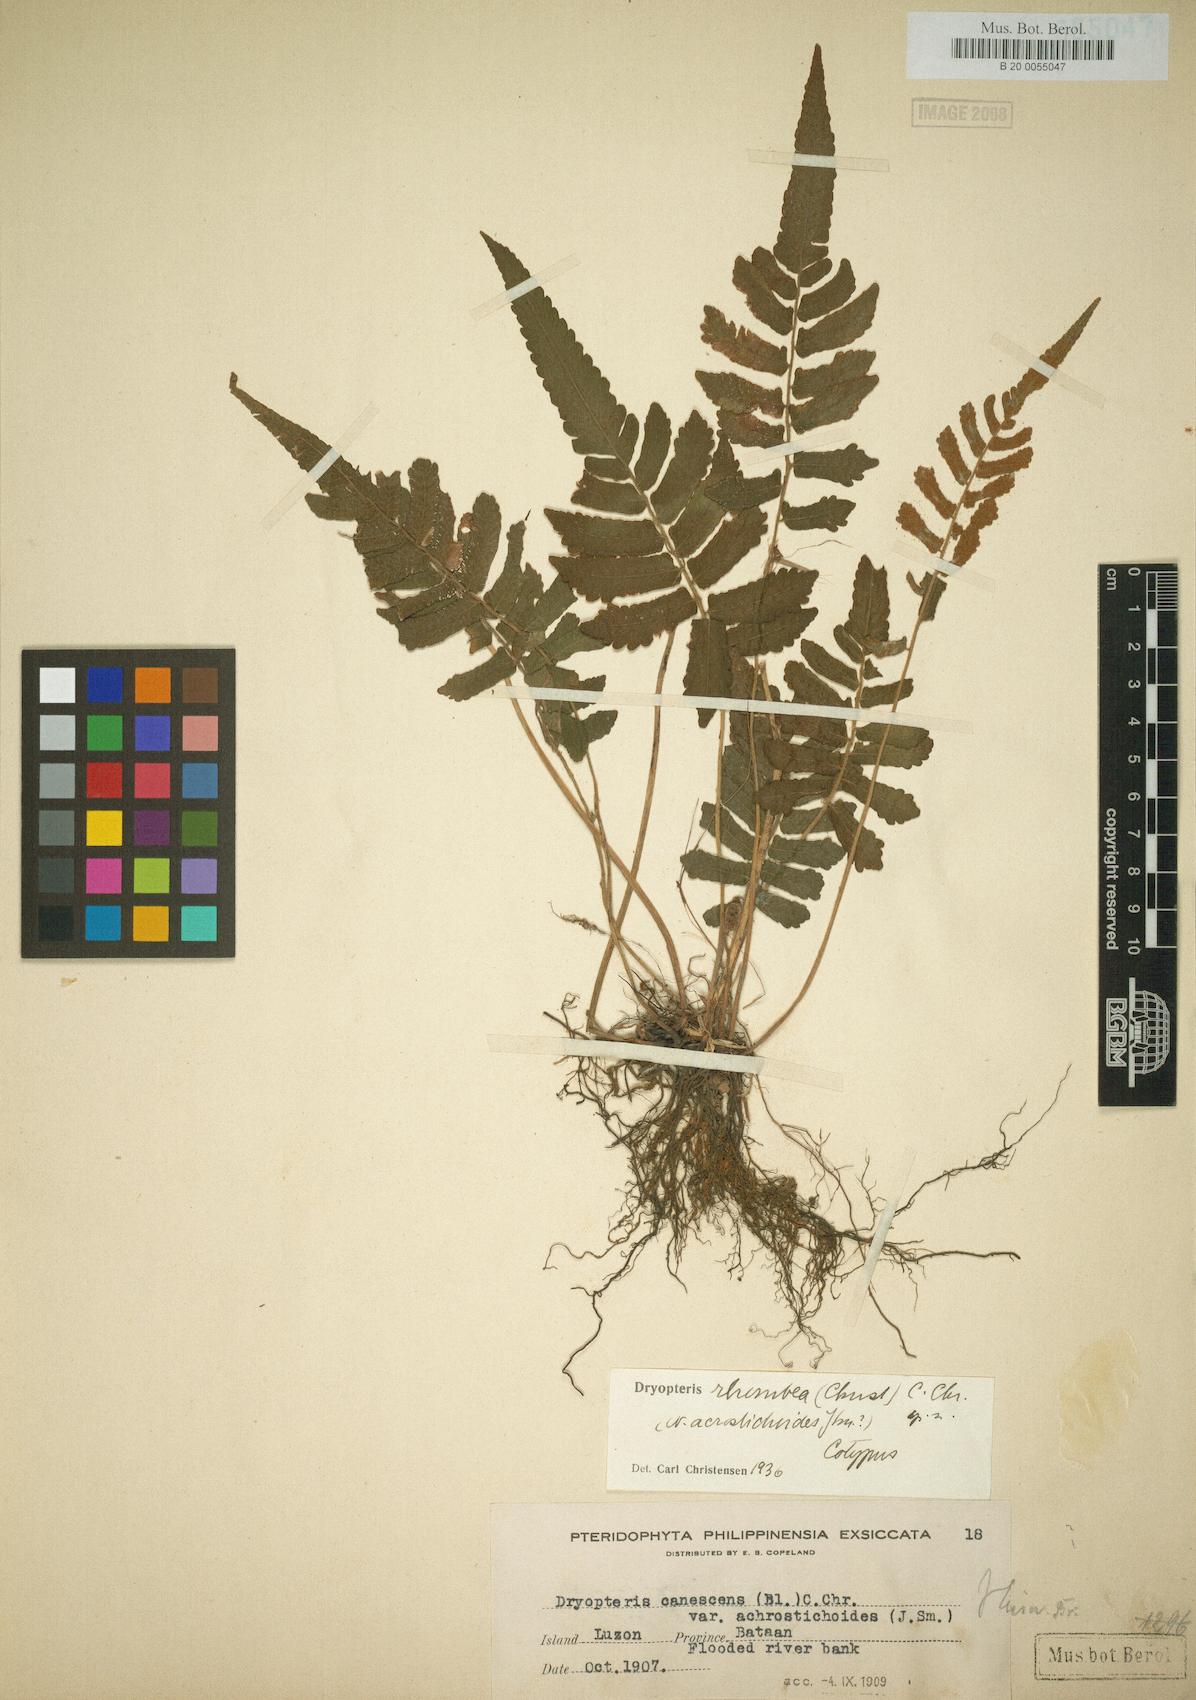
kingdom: Plantae
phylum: Tracheophyta
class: Polypodiopsida
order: Polypodiales
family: Thelypteridaceae
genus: Sphaerostephanos
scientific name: Sphaerostephanos diversilobus
